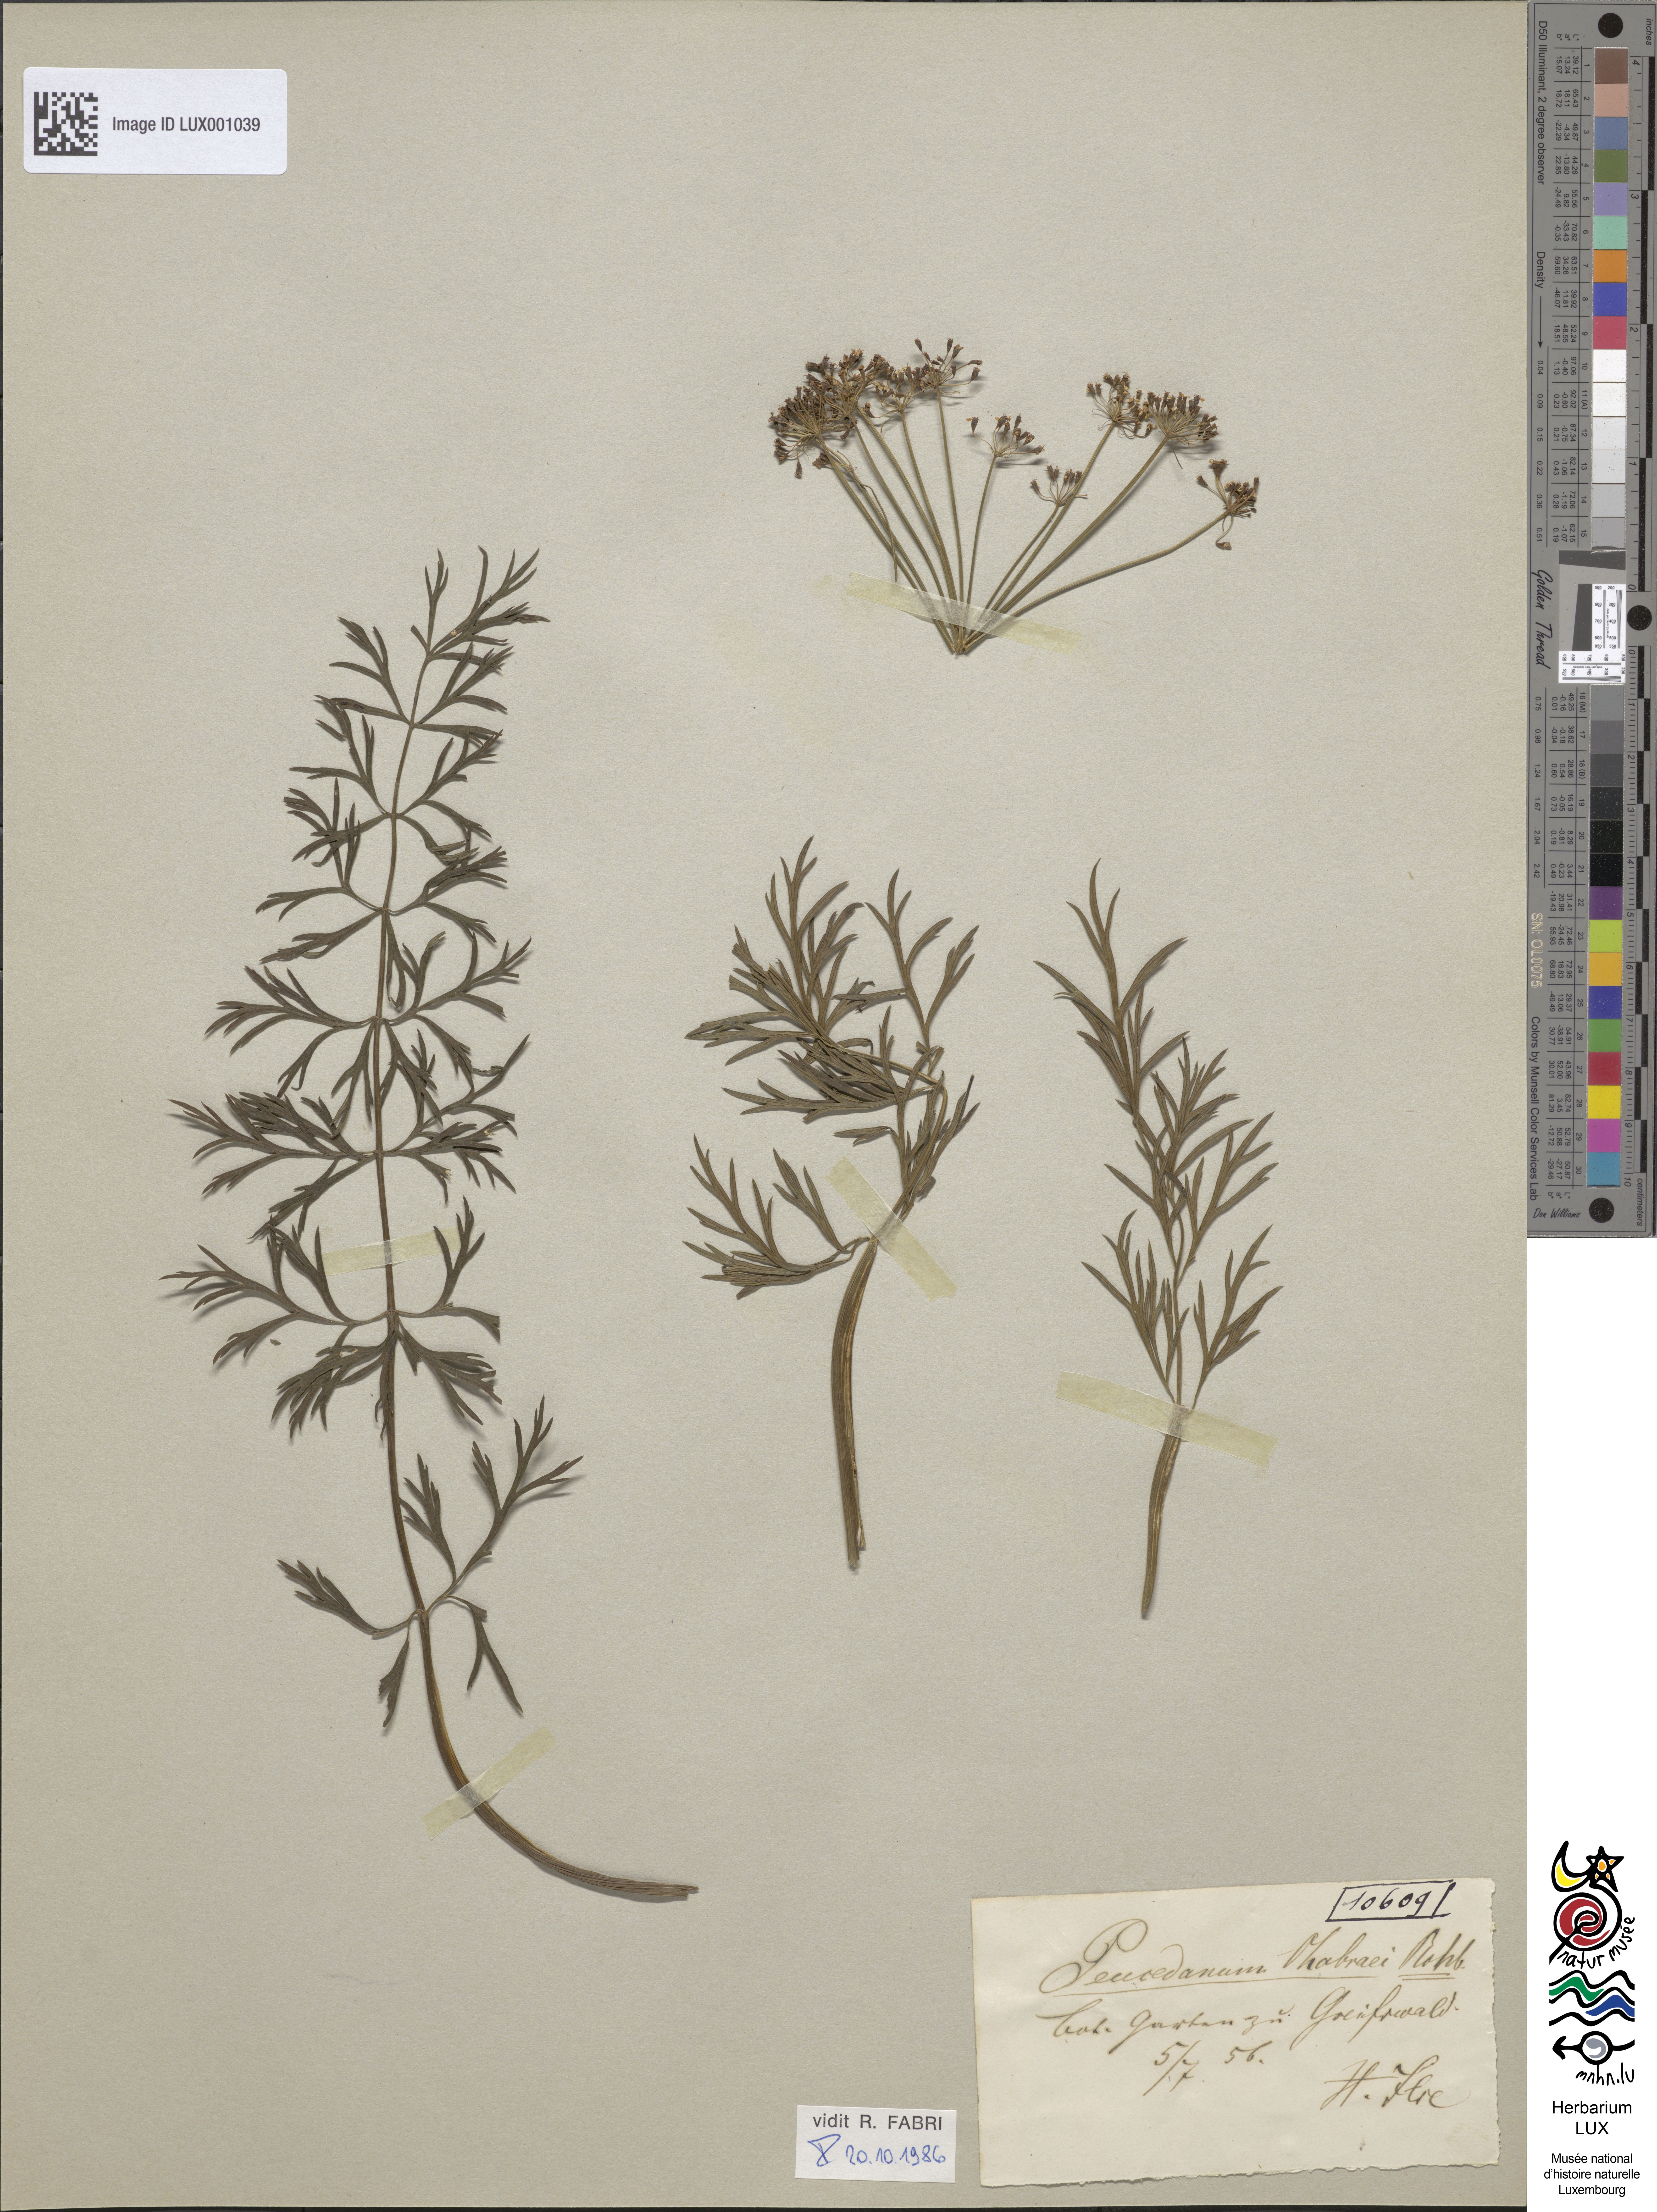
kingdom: Plantae
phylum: Tracheophyta
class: Magnoliopsida
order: Apiales
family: Apiaceae
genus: Dichoropetalum
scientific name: Dichoropetalum carvifolia
